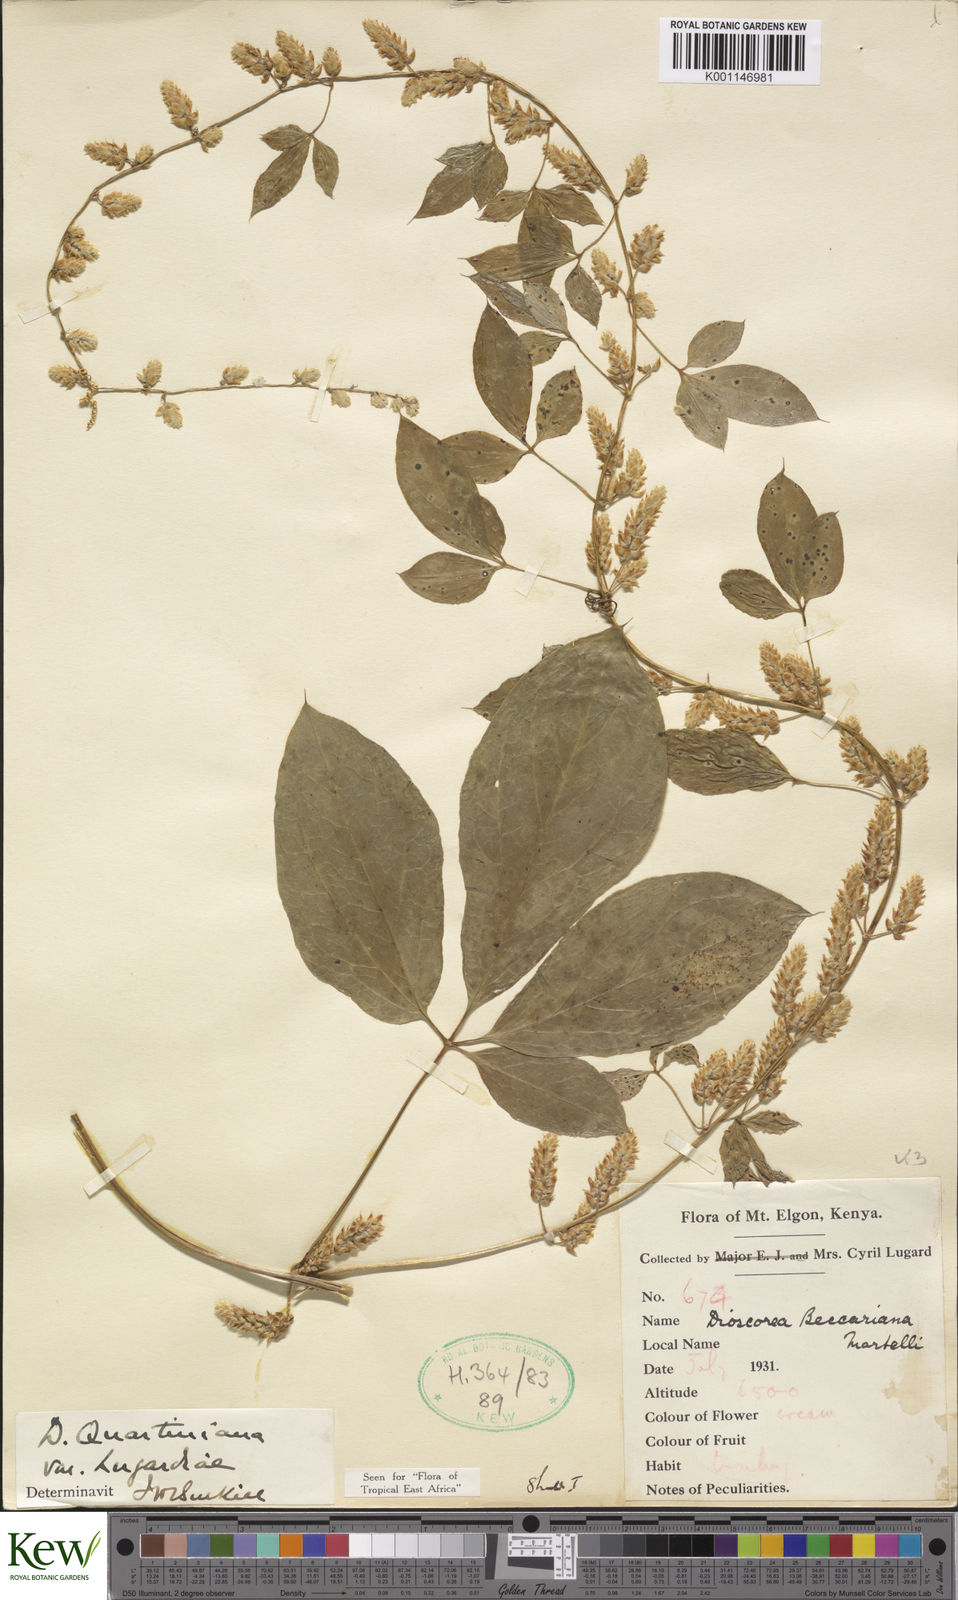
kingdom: Plantae
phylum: Tracheophyta
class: Liliopsida
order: Dioscoreales
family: Dioscoreaceae
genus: Dioscorea
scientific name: Dioscorea quartiniana
